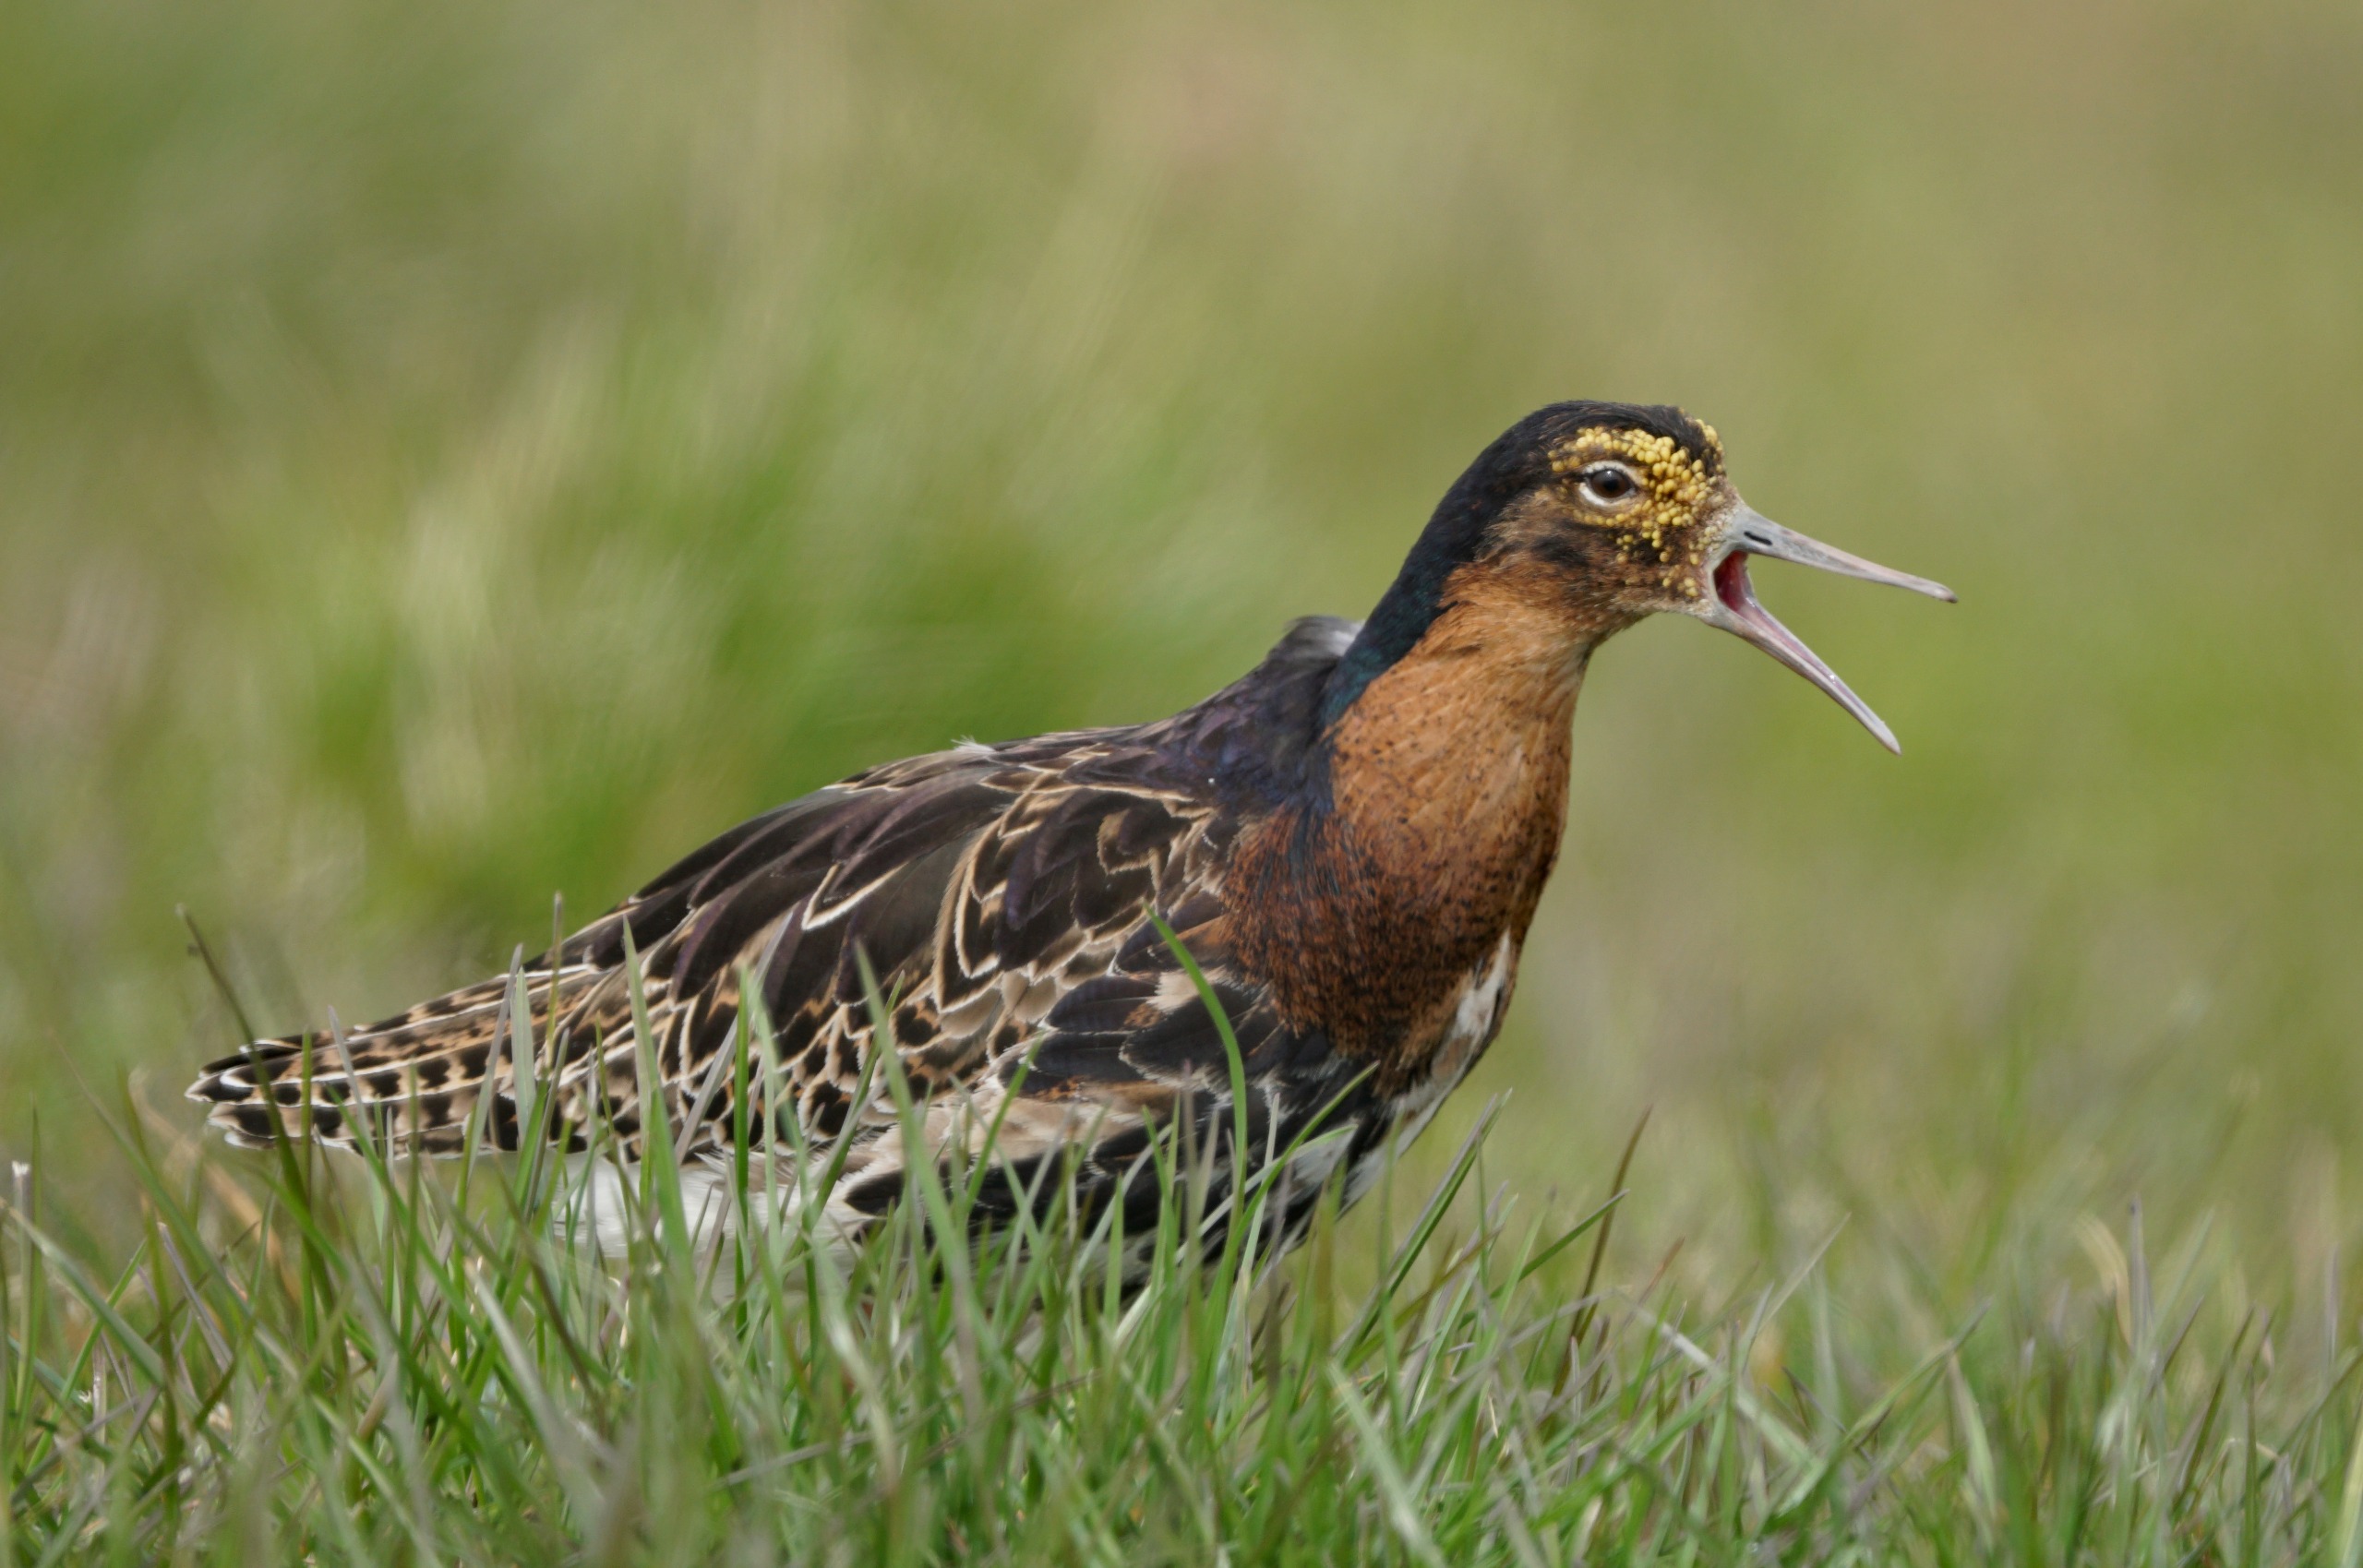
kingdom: Animalia
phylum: Chordata
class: Aves
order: Charadriiformes
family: Scolopacidae
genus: Calidris
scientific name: Calidris pugnax
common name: Brushane
